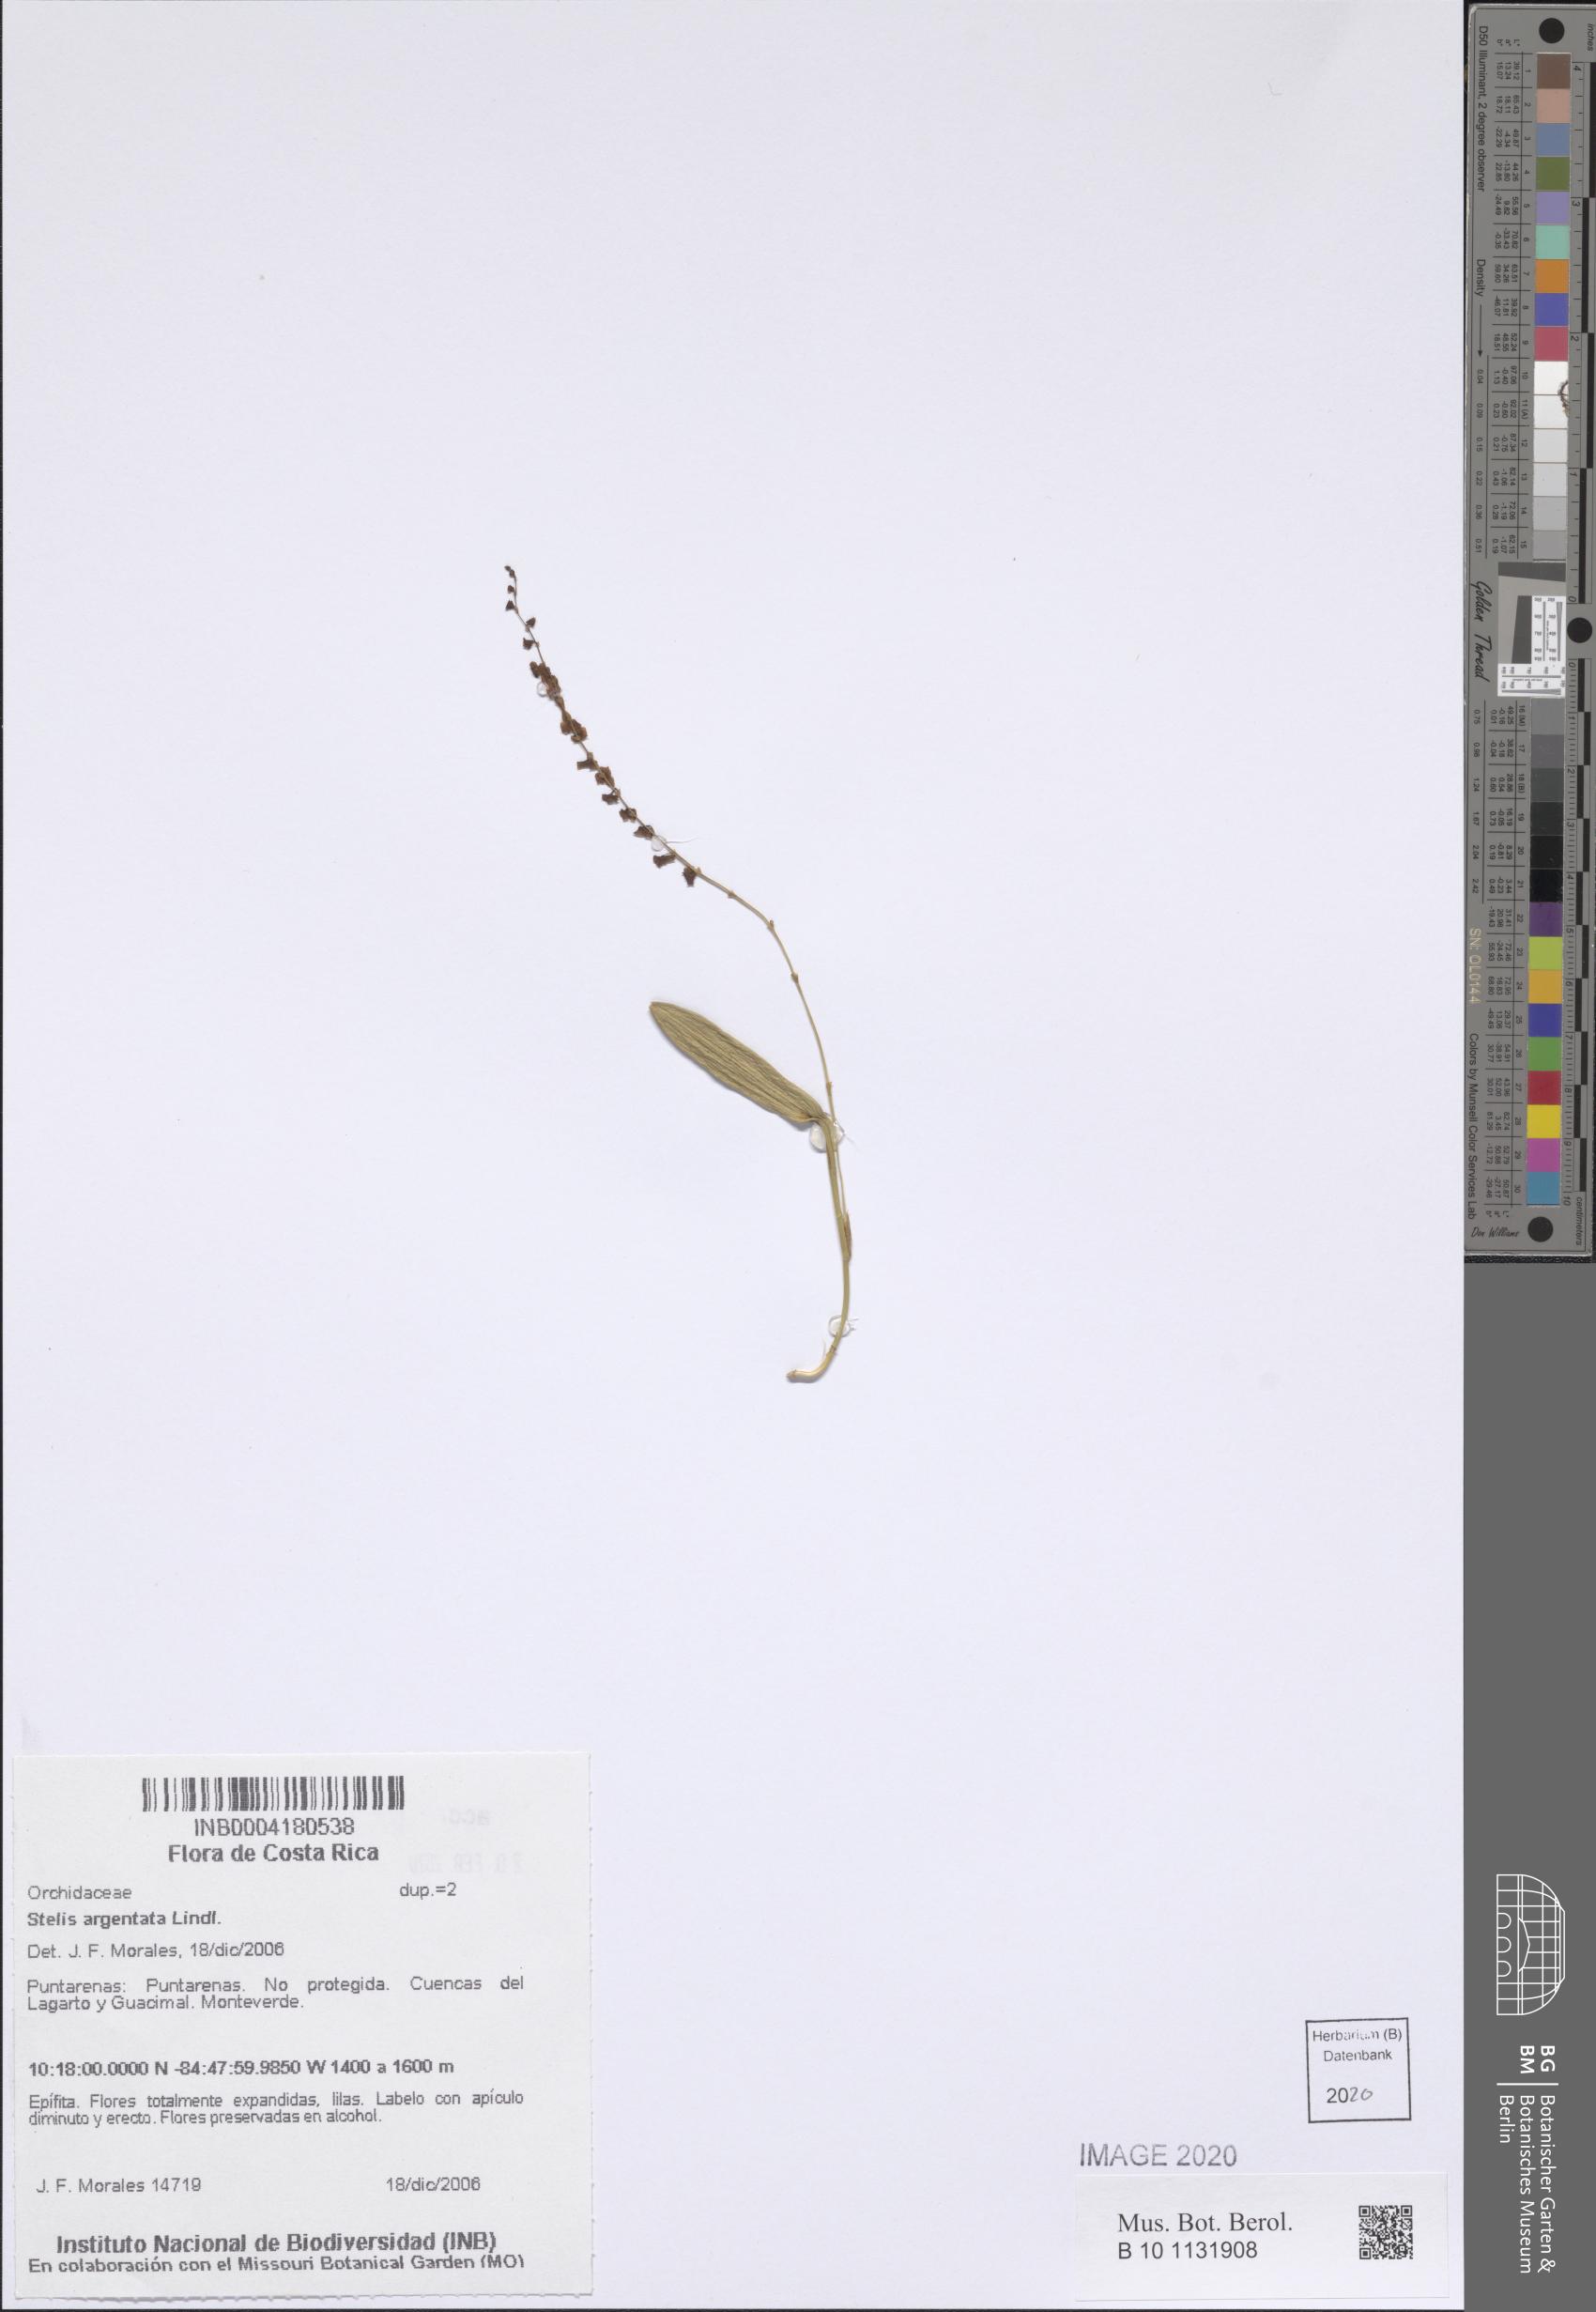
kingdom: Plantae
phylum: Tracheophyta
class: Liliopsida
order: Asparagales
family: Orchidaceae
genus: Stelis
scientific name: Stelis argentata
